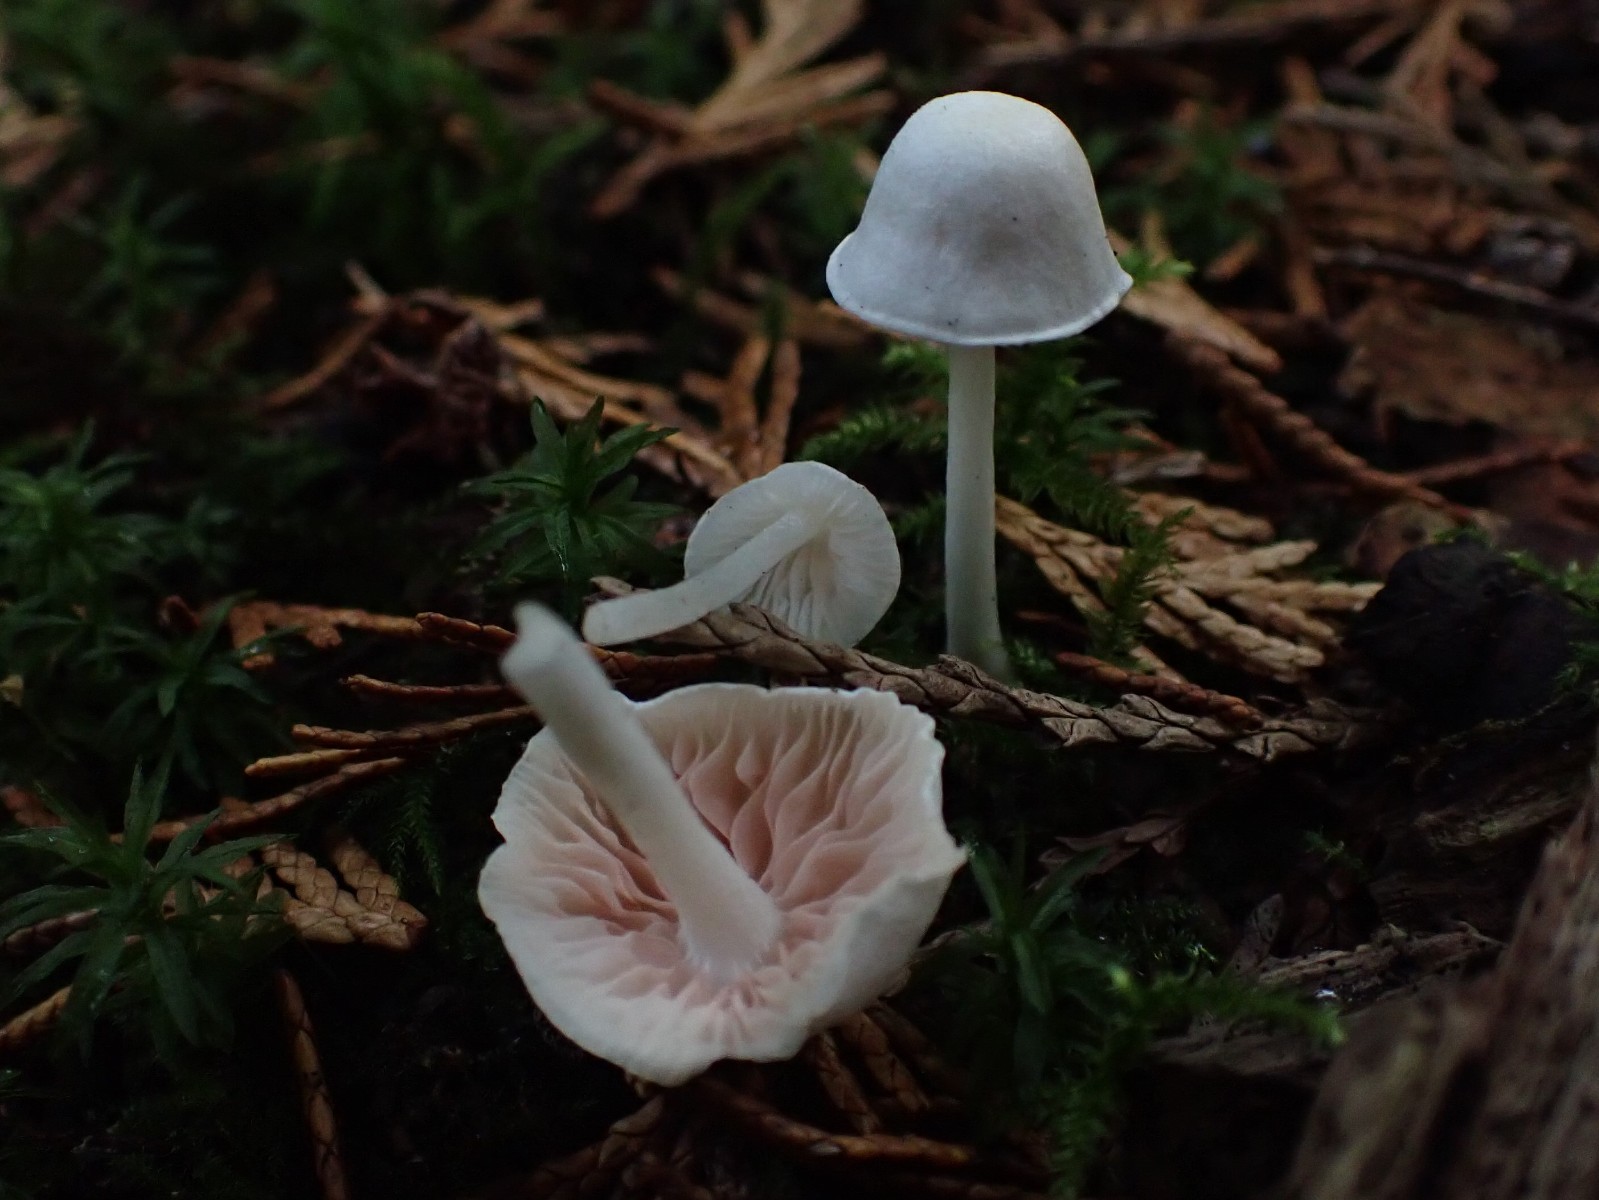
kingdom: Fungi
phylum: Basidiomycota
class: Agaricomycetes
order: Agaricales
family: Entolomataceae
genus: Entoloma
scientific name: Entoloma sericellum
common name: silkehvid rødblad
